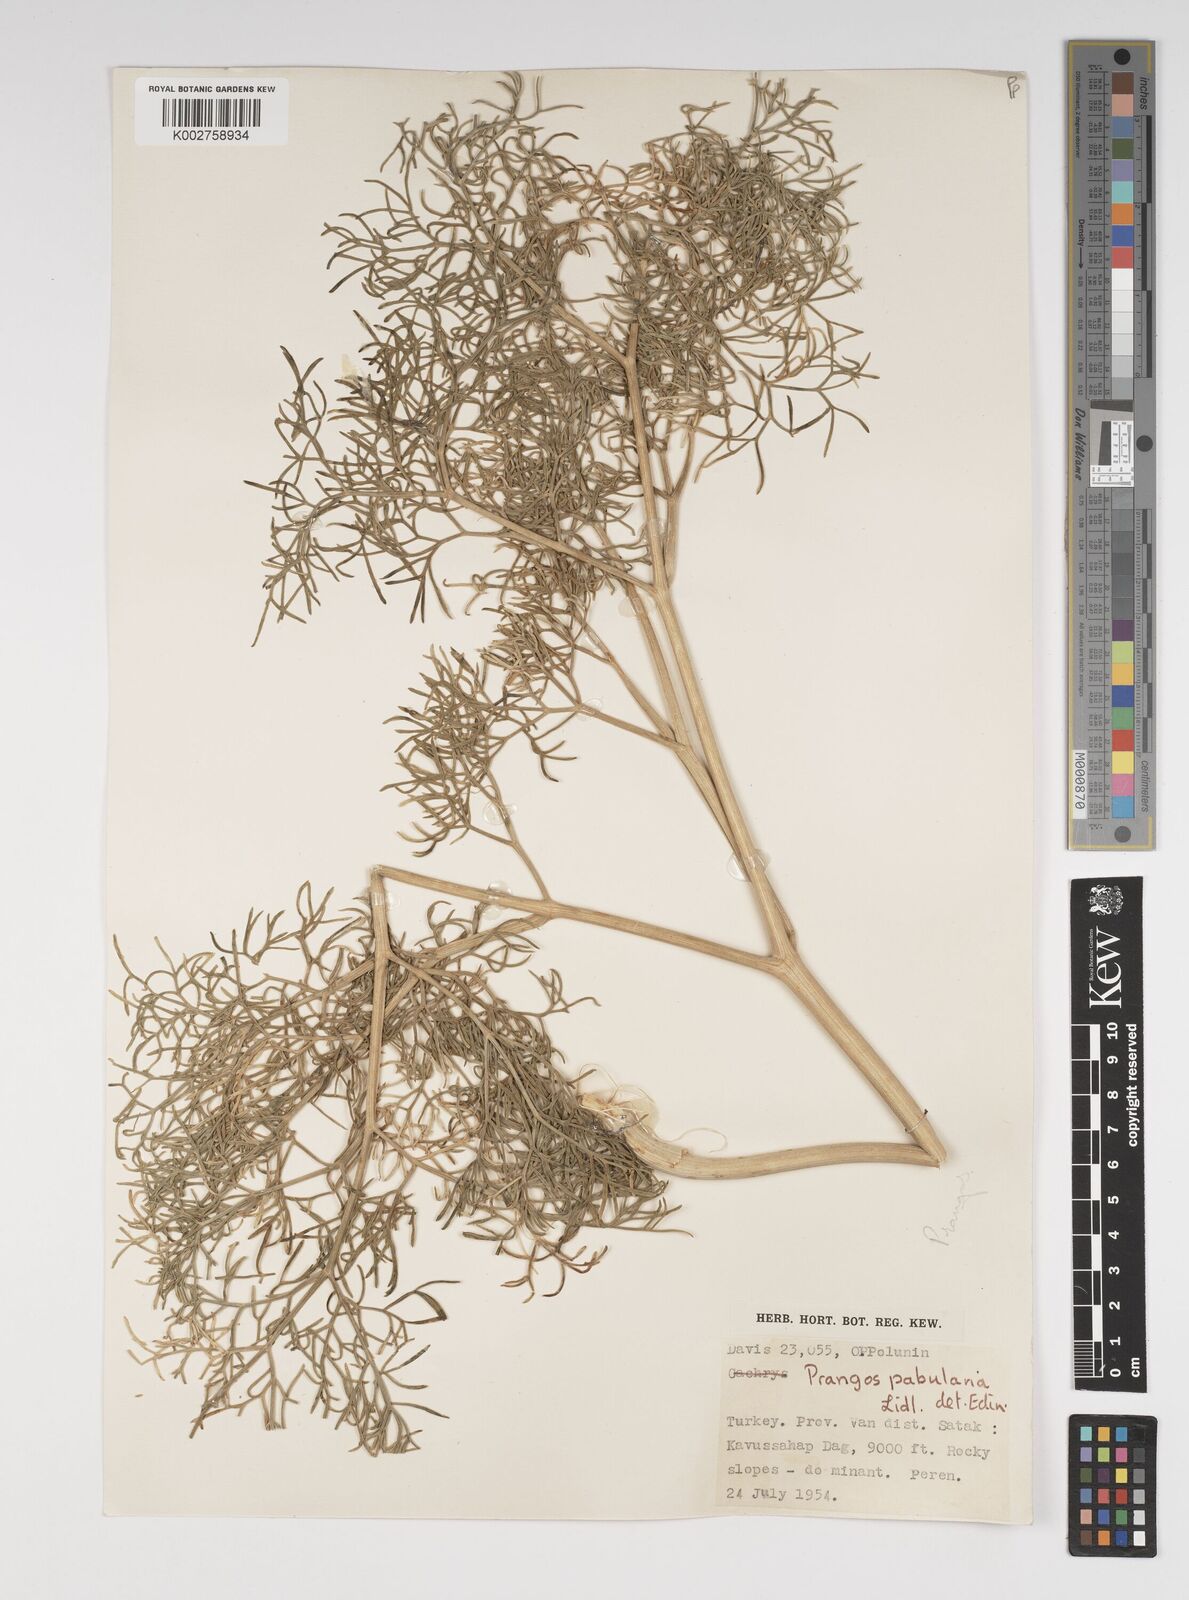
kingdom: Plantae
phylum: Tracheophyta
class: Magnoliopsida
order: Apiales
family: Apiaceae
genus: Prangos
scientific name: Prangos pabularia
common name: Yugan
